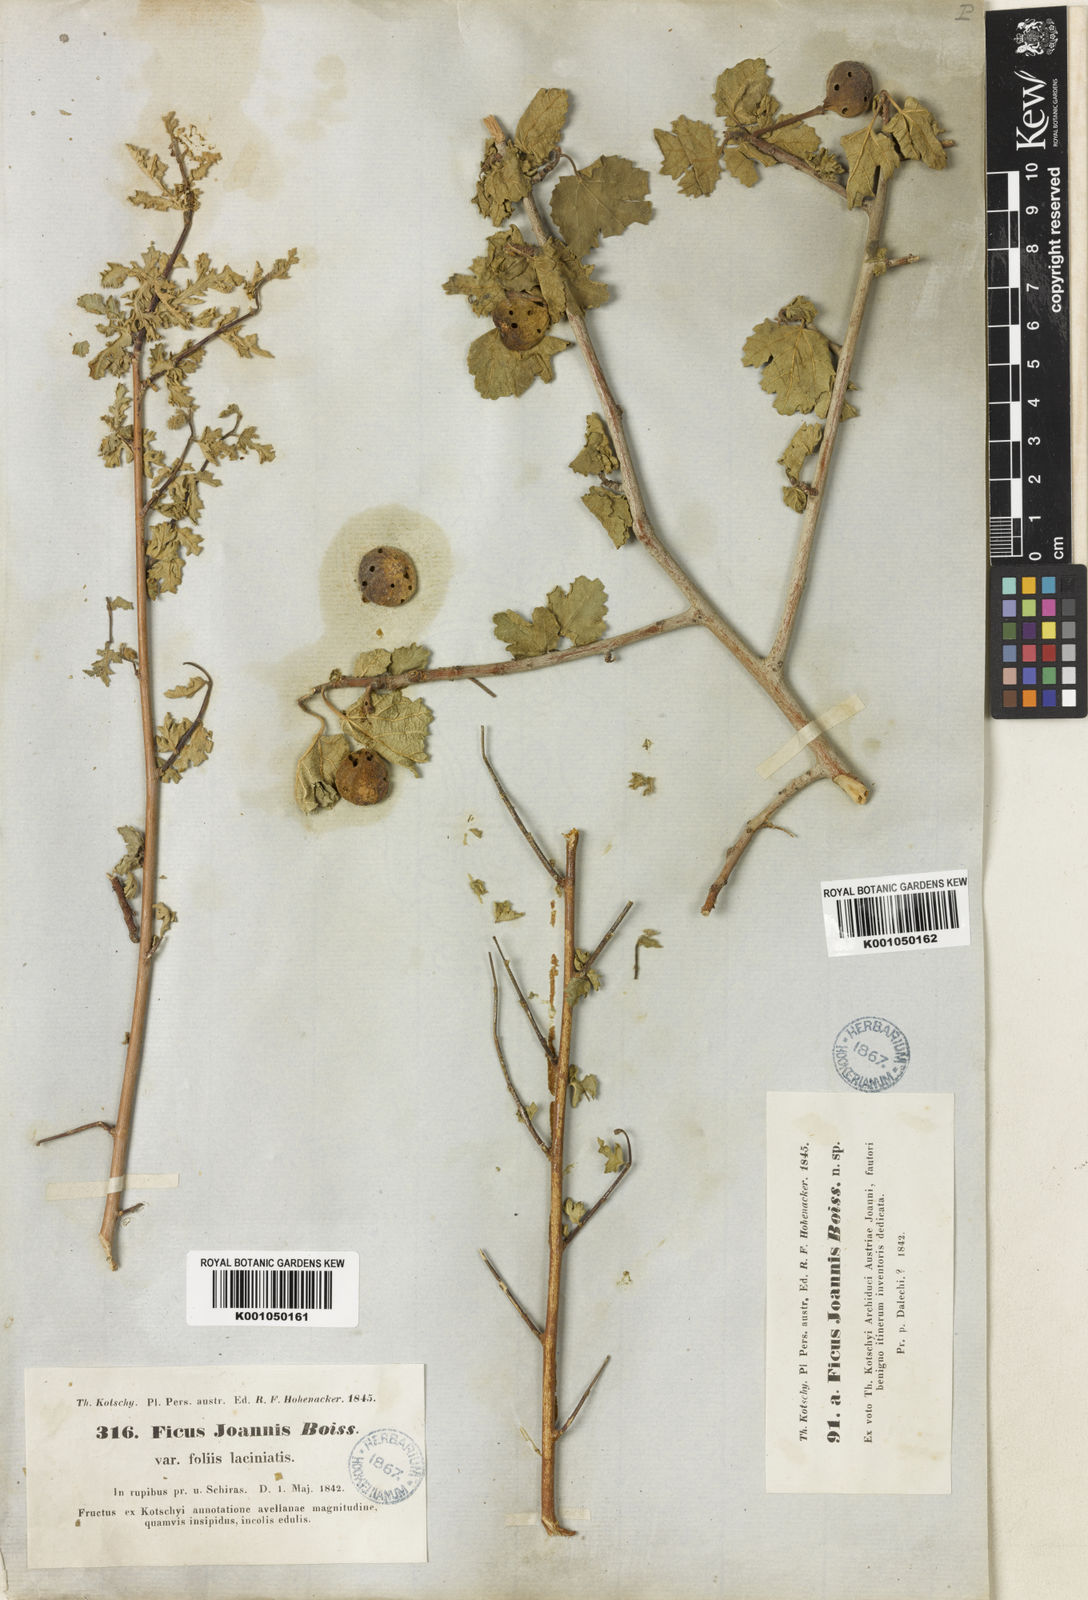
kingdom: Plantae
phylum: Tracheophyta
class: Magnoliopsida
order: Rosales
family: Moraceae
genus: Ficus
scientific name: Ficus johannis
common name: Mountain fig
